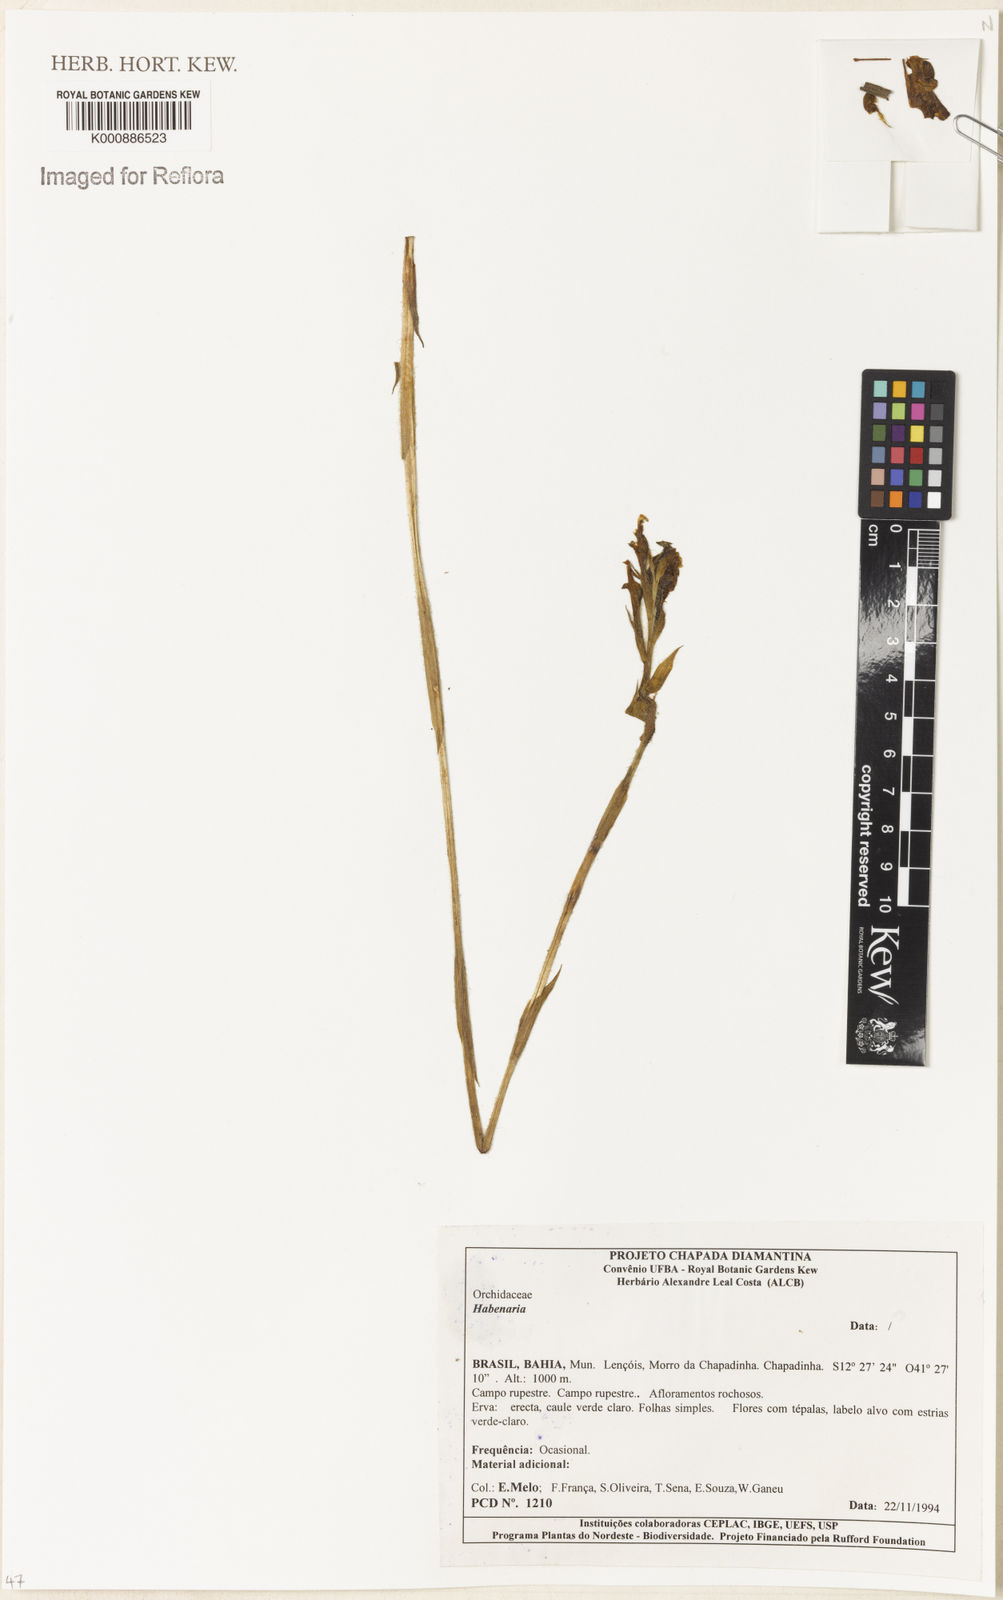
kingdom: Plantae
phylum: Tracheophyta
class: Liliopsida
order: Asparagales
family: Orchidaceae
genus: Habenaria
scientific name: Habenaria
